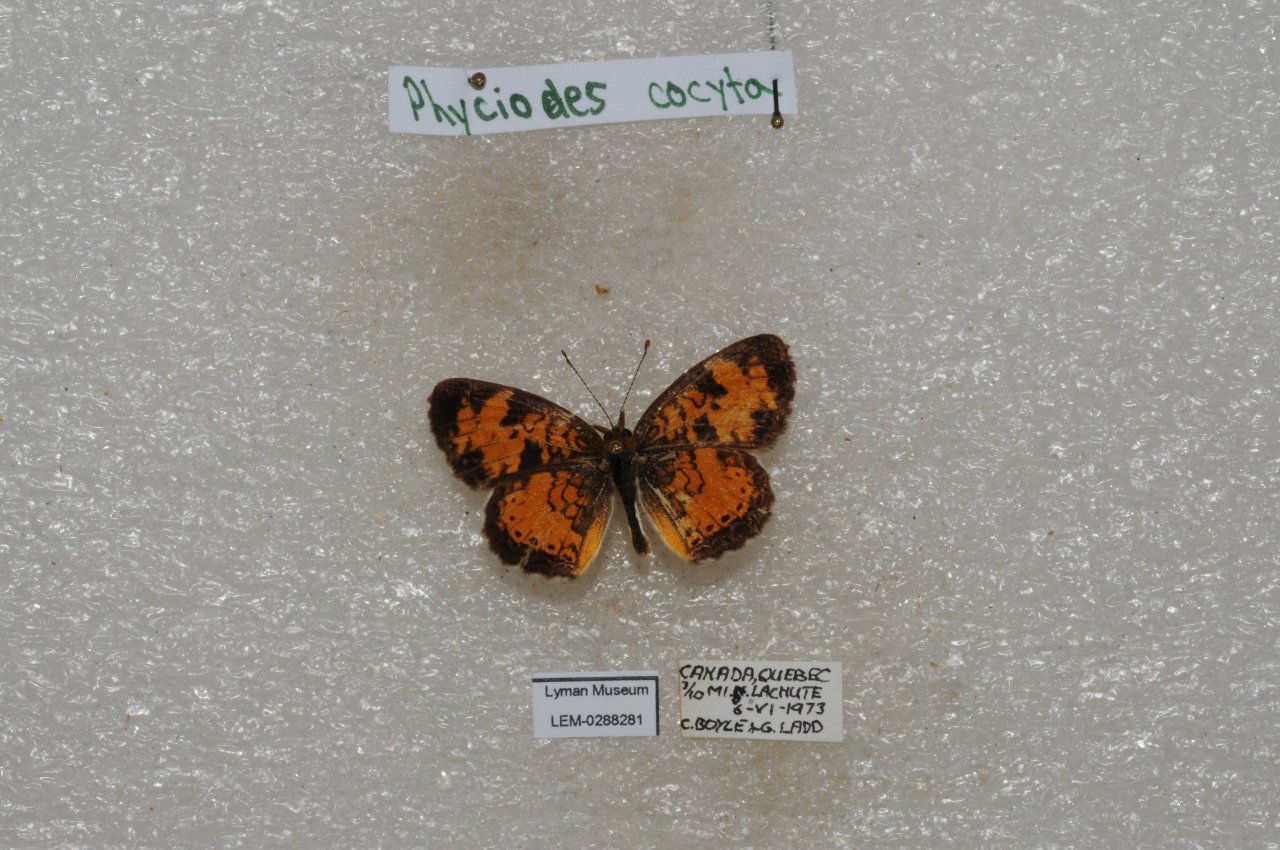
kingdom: Animalia
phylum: Arthropoda
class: Insecta
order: Lepidoptera
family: Nymphalidae
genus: Phyciodes
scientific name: Phyciodes tharos
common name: Northern Crescent
